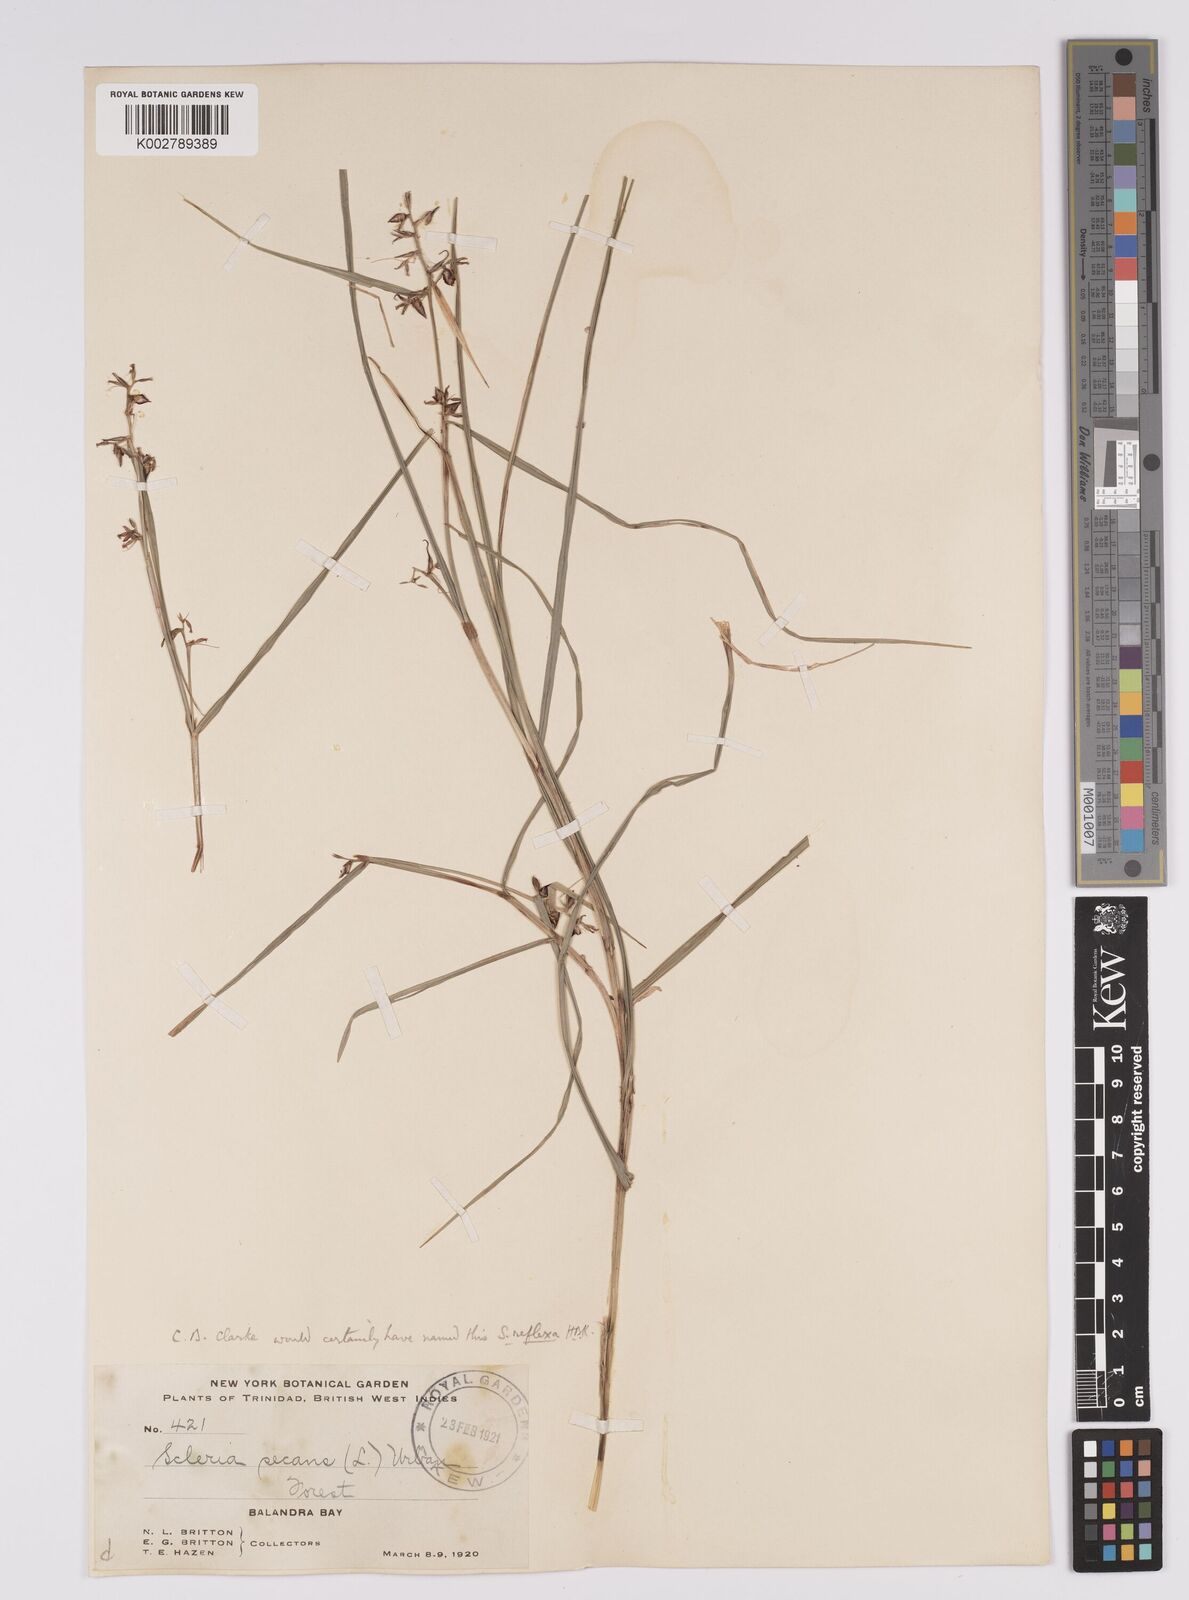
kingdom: Plantae
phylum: Tracheophyta
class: Liliopsida
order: Poales
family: Cyperaceae
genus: Scleria
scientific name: Scleria secans
